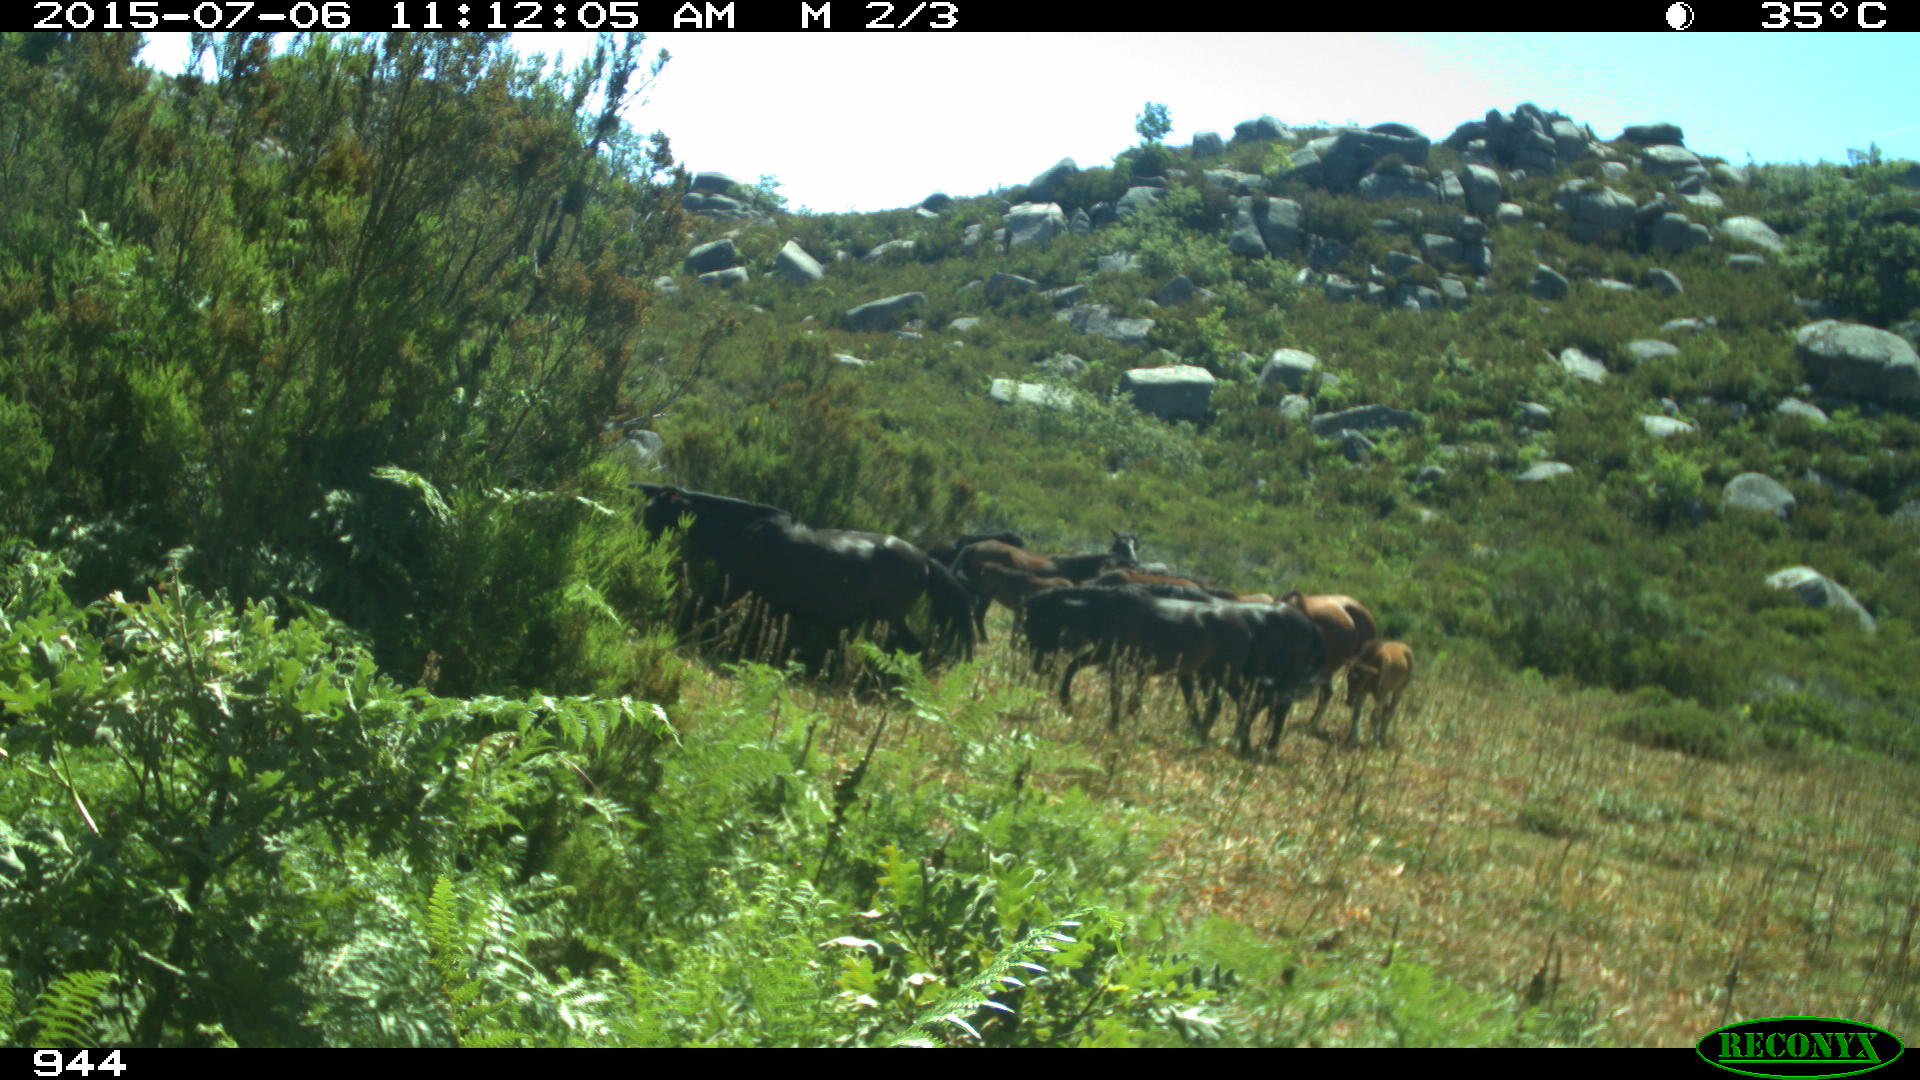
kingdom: Animalia
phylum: Chordata
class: Mammalia
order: Perissodactyla
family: Equidae
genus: Equus
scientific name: Equus caballus
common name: Horse
